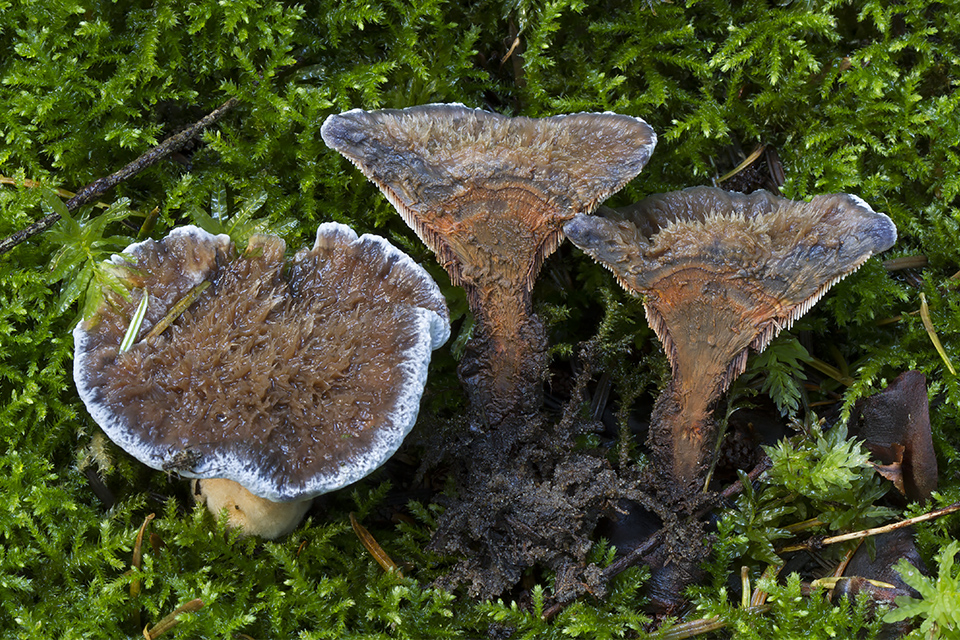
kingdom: Fungi
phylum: Basidiomycota
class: Agaricomycetes
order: Thelephorales
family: Bankeraceae
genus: Hydnellum
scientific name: Hydnellum caeruleum
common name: blålig korkpigsvamp
